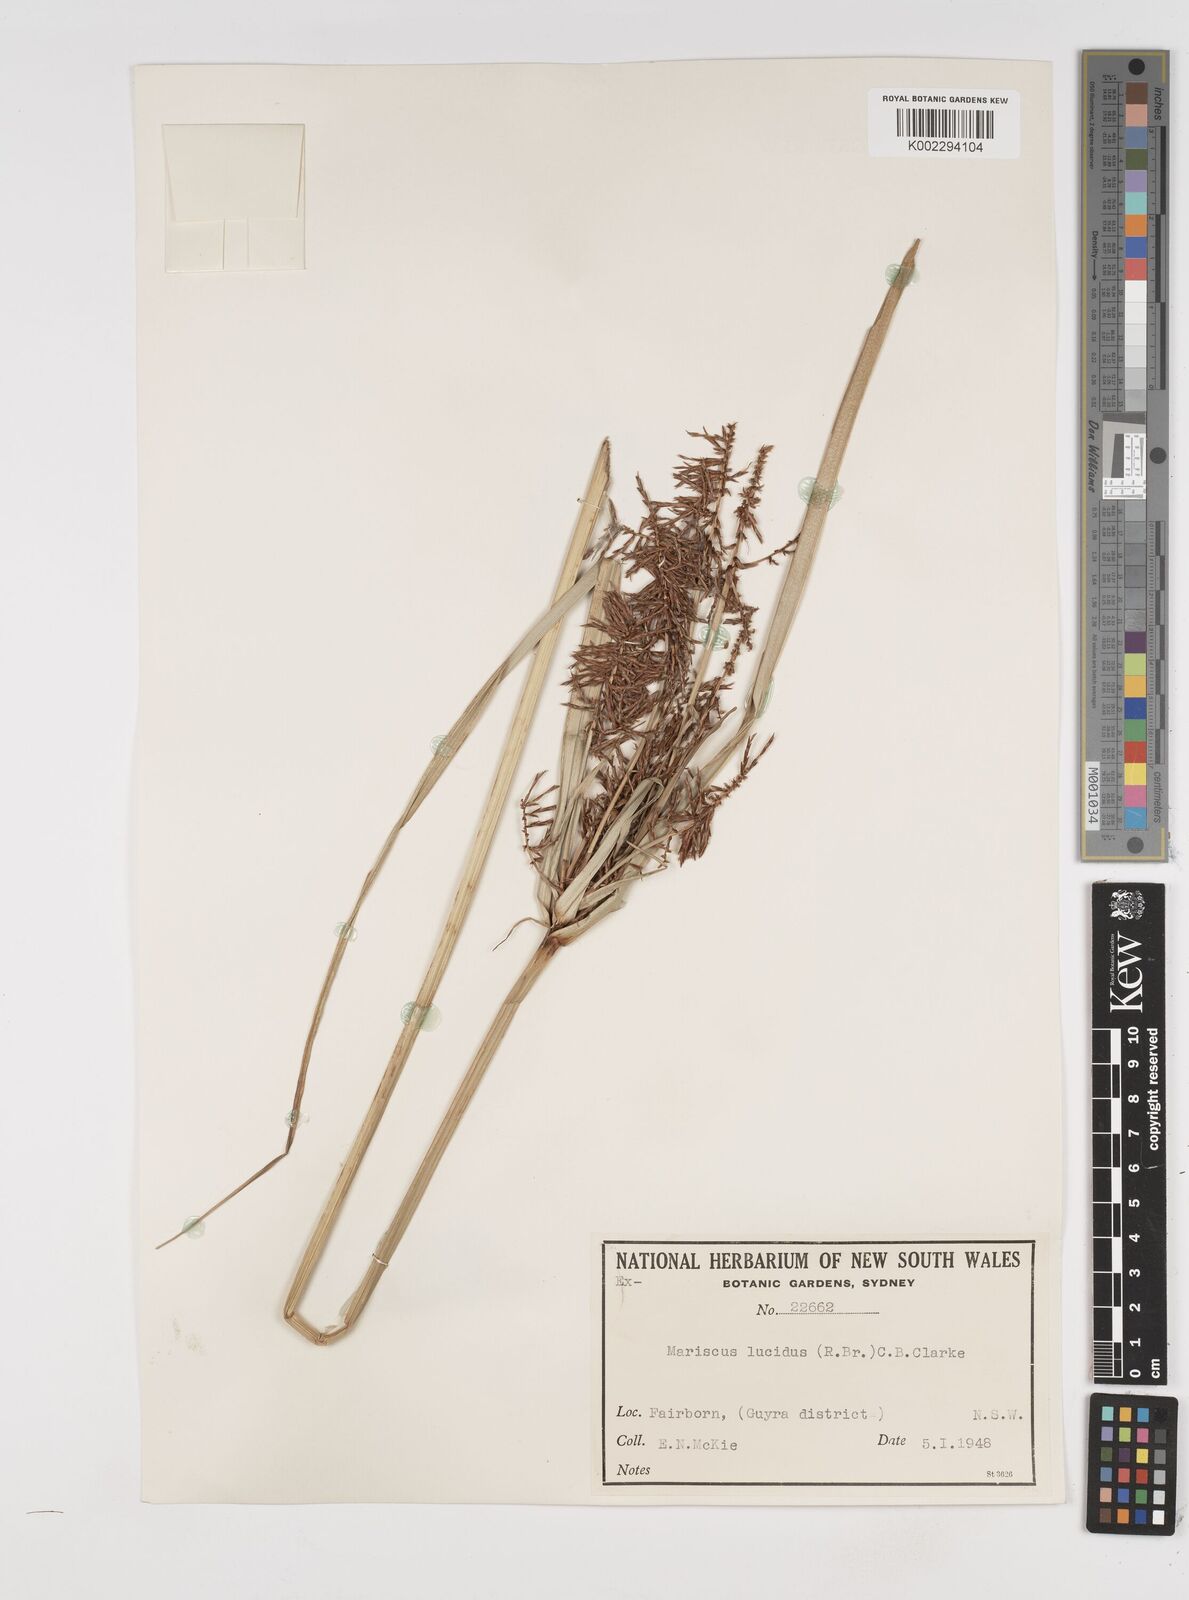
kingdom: Plantae
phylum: Tracheophyta
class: Liliopsida
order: Poales
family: Cyperaceae
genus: Cyperus
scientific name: Cyperus lucidus
